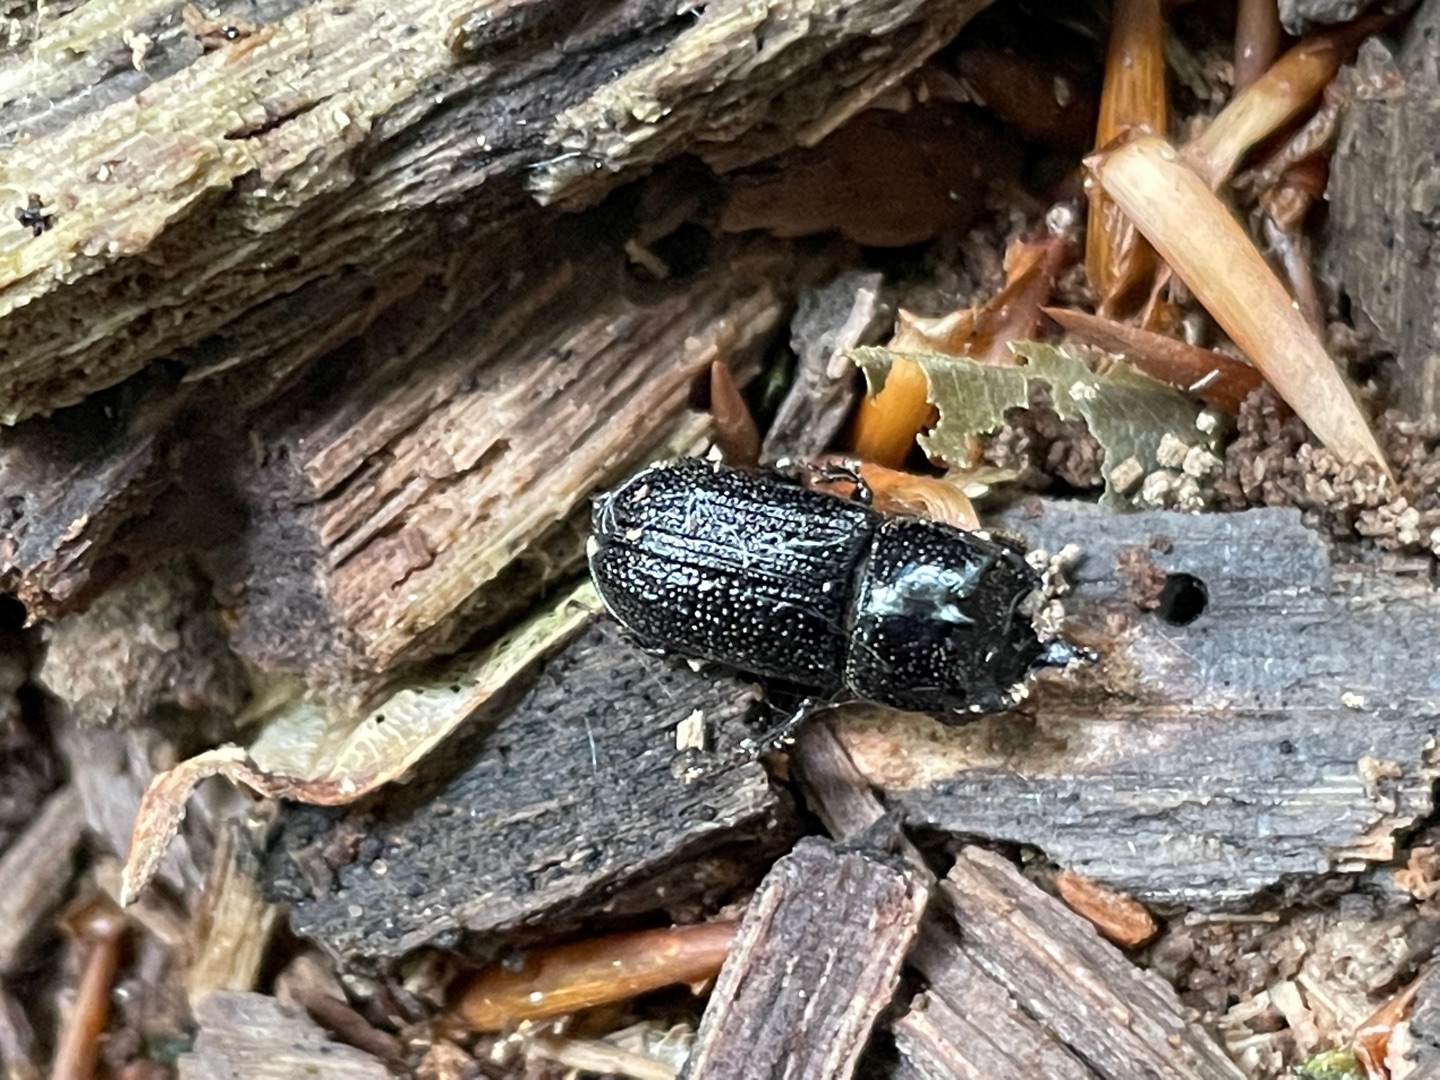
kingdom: Animalia
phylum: Arthropoda
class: Insecta
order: Coleoptera
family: Lucanidae
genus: Sinodendron
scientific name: Sinodendron cylindricum
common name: Valsehjort
